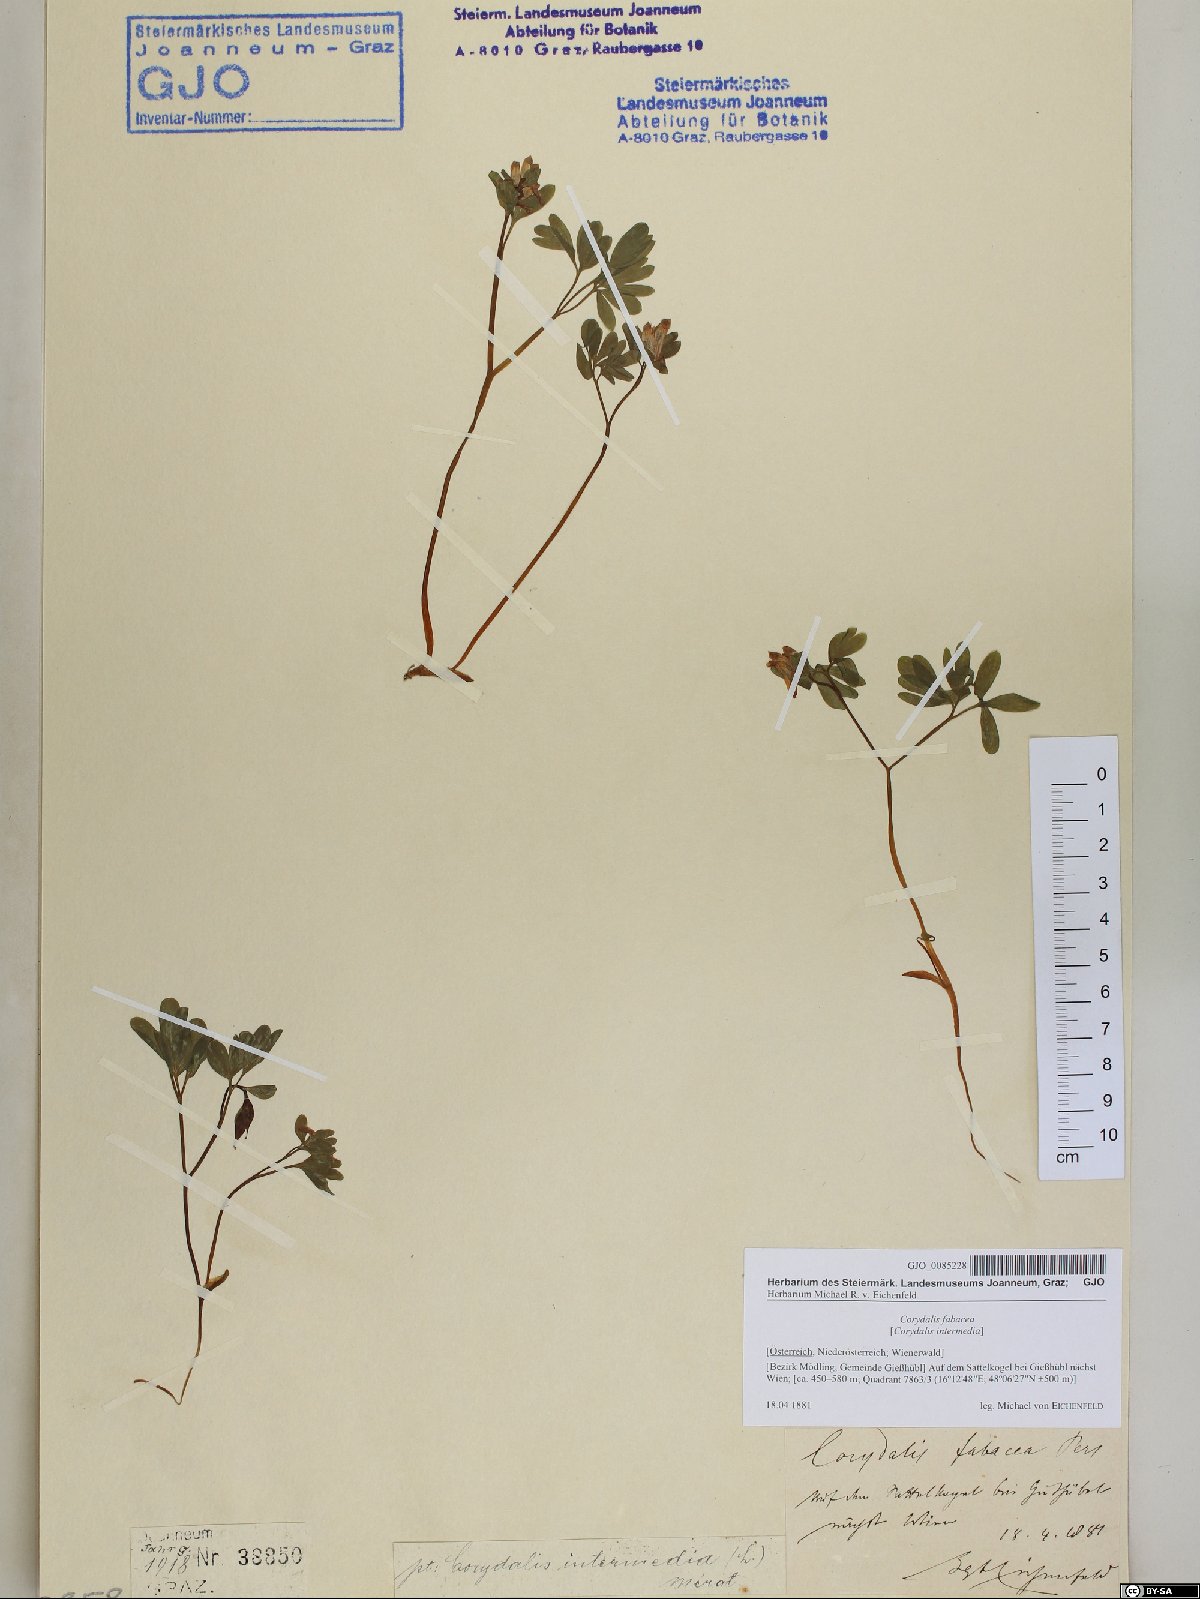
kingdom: Plantae
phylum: Tracheophyta
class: Magnoliopsida
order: Ranunculales
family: Papaveraceae
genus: Corydalis
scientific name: Corydalis intermedia
